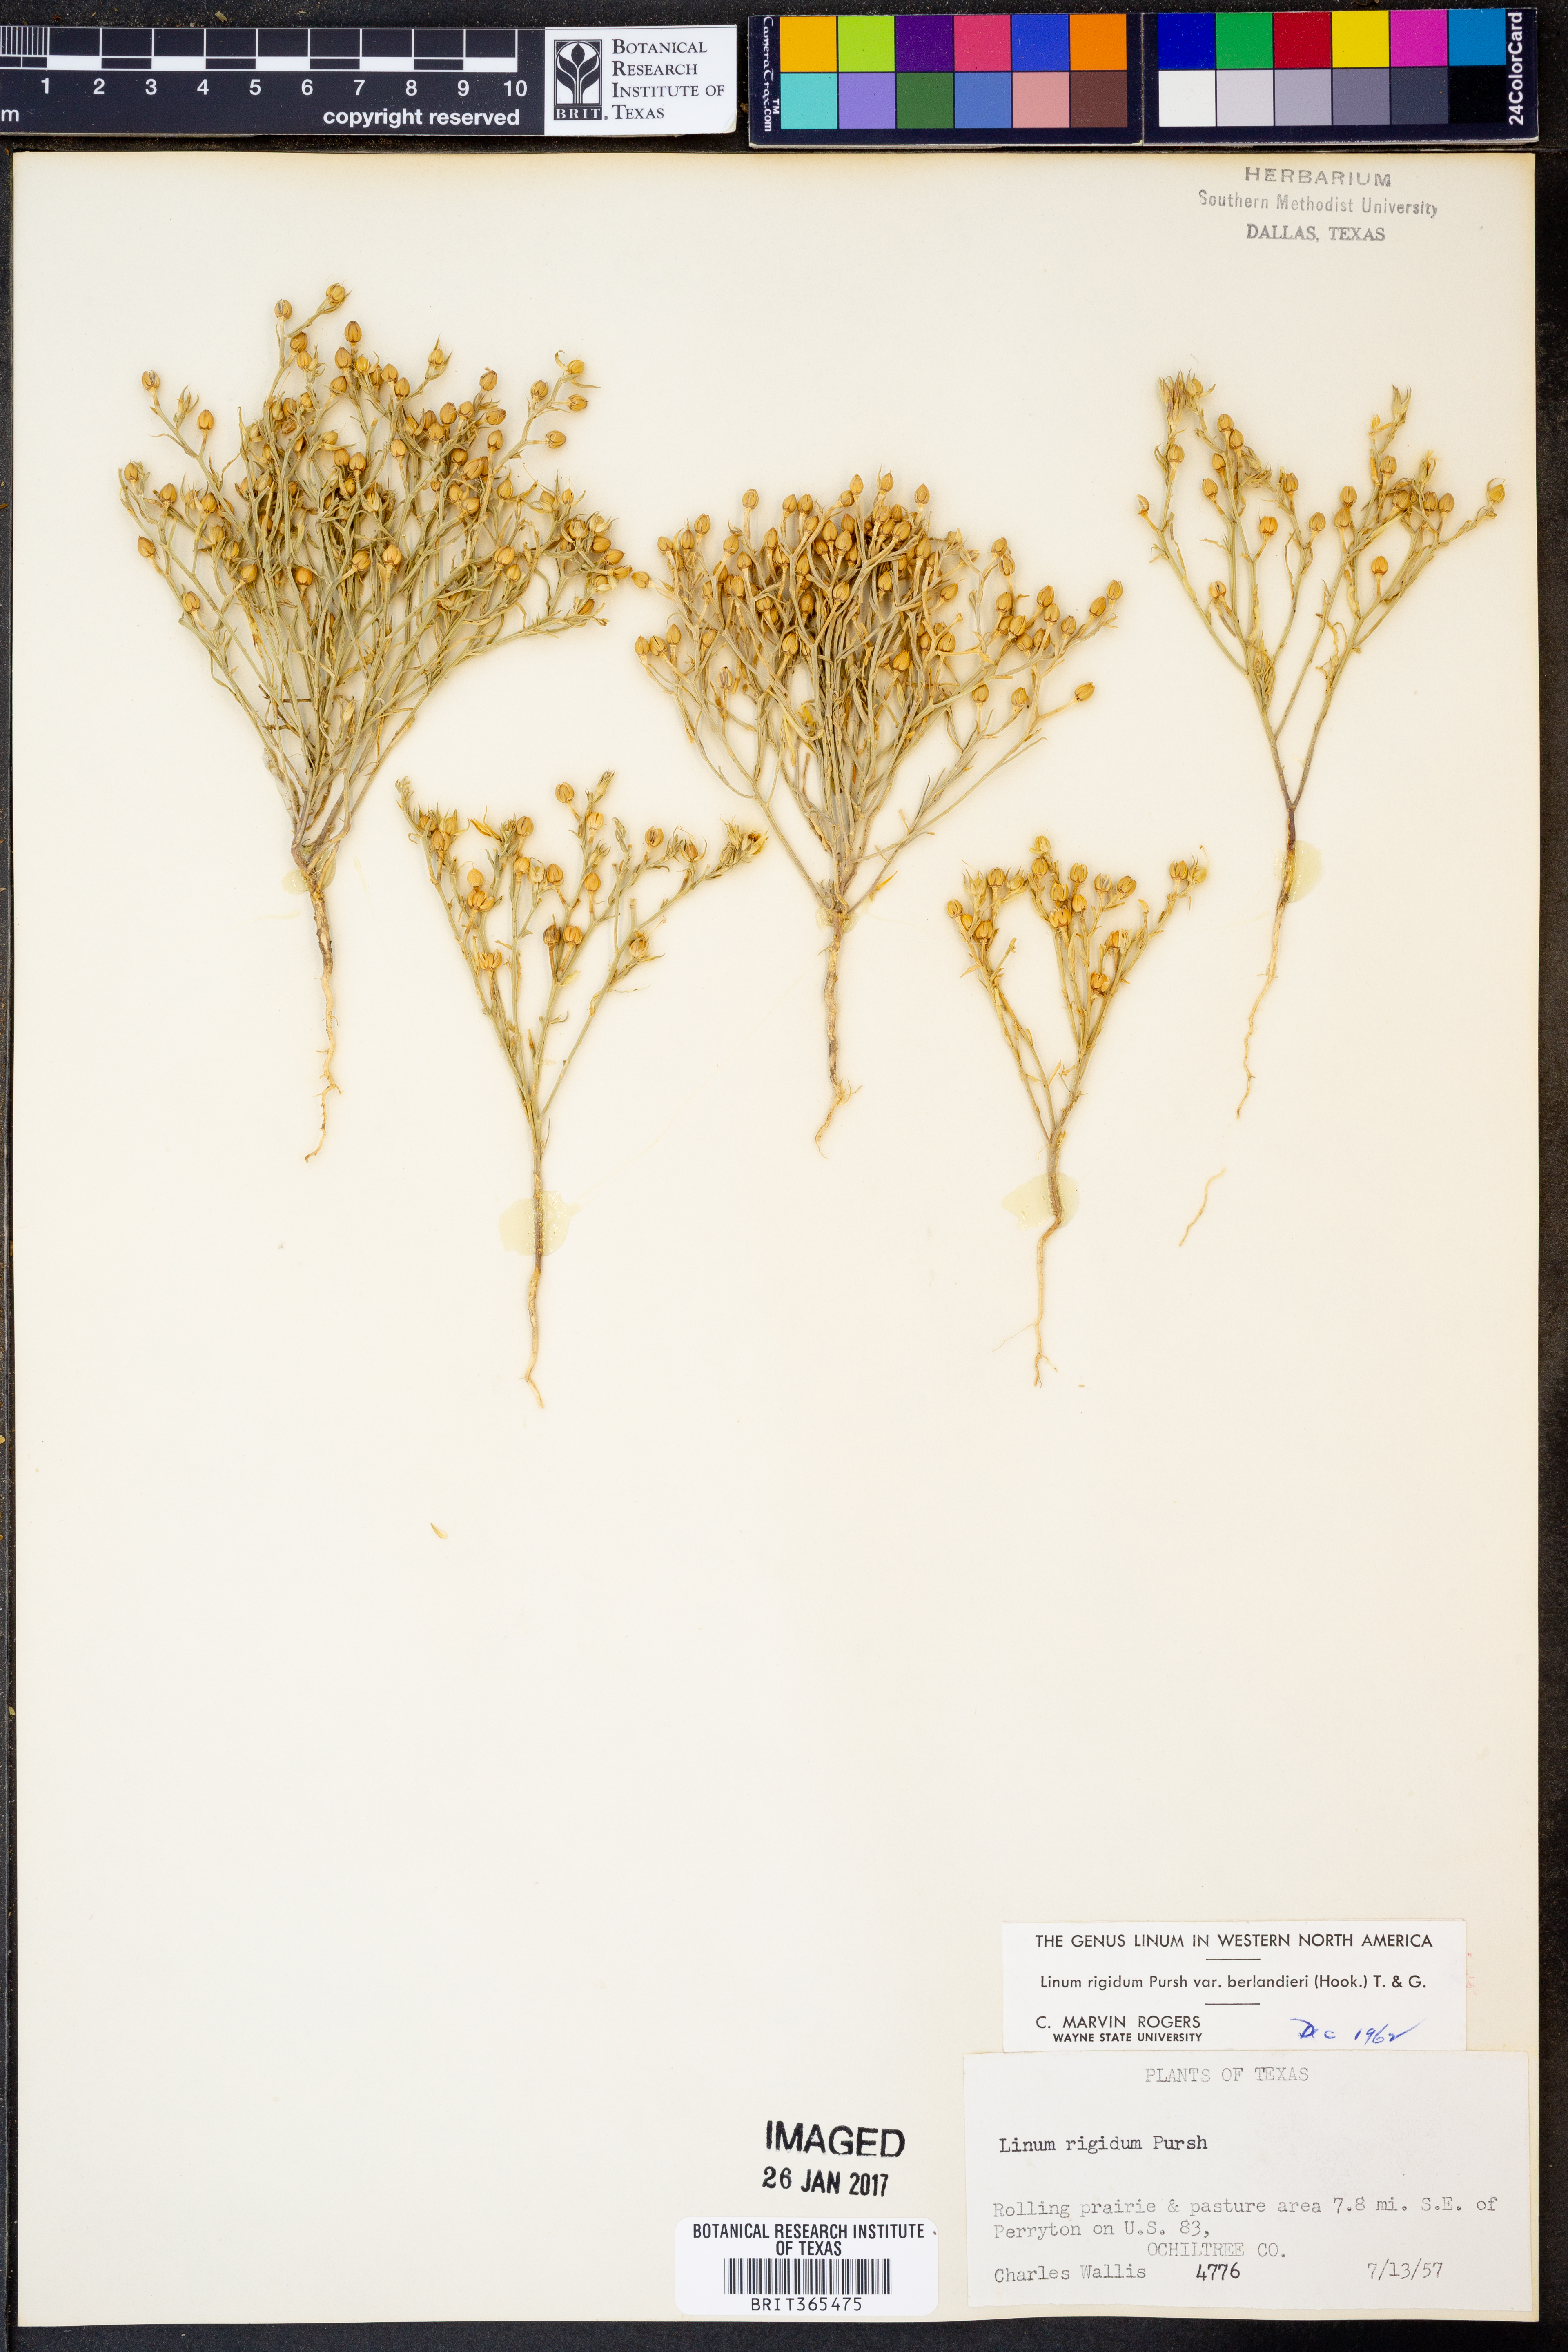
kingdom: Plantae
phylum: Tracheophyta
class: Magnoliopsida
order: Malpighiales
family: Linaceae
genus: Linum
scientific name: Linum berlandieri
